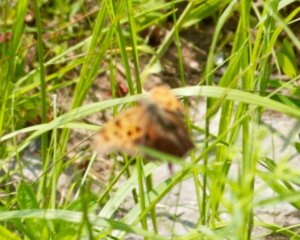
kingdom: Animalia
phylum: Arthropoda
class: Insecta
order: Lepidoptera
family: Nymphalidae
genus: Polygonia
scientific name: Polygonia interrogationis
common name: Question Mark
